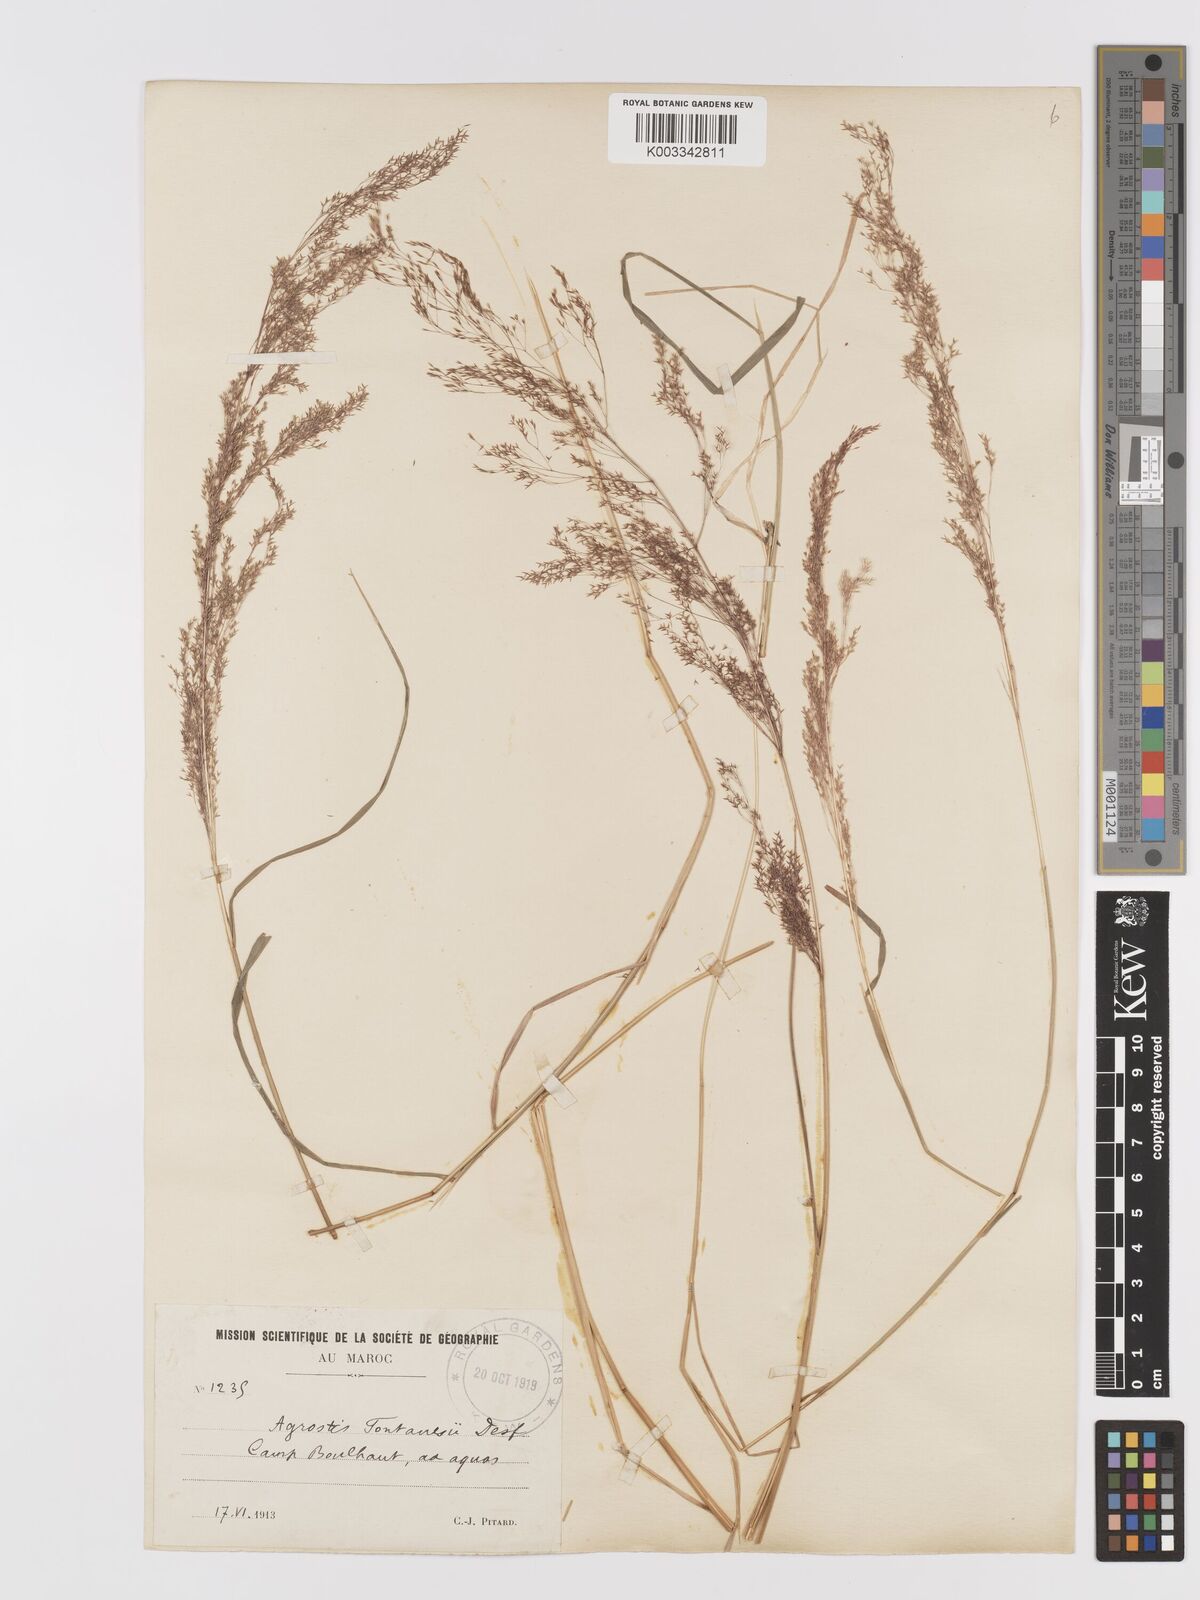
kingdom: Plantae
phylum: Tracheophyta
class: Liliopsida
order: Poales
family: Poaceae
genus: Agrostis
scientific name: Agrostis reuteri
